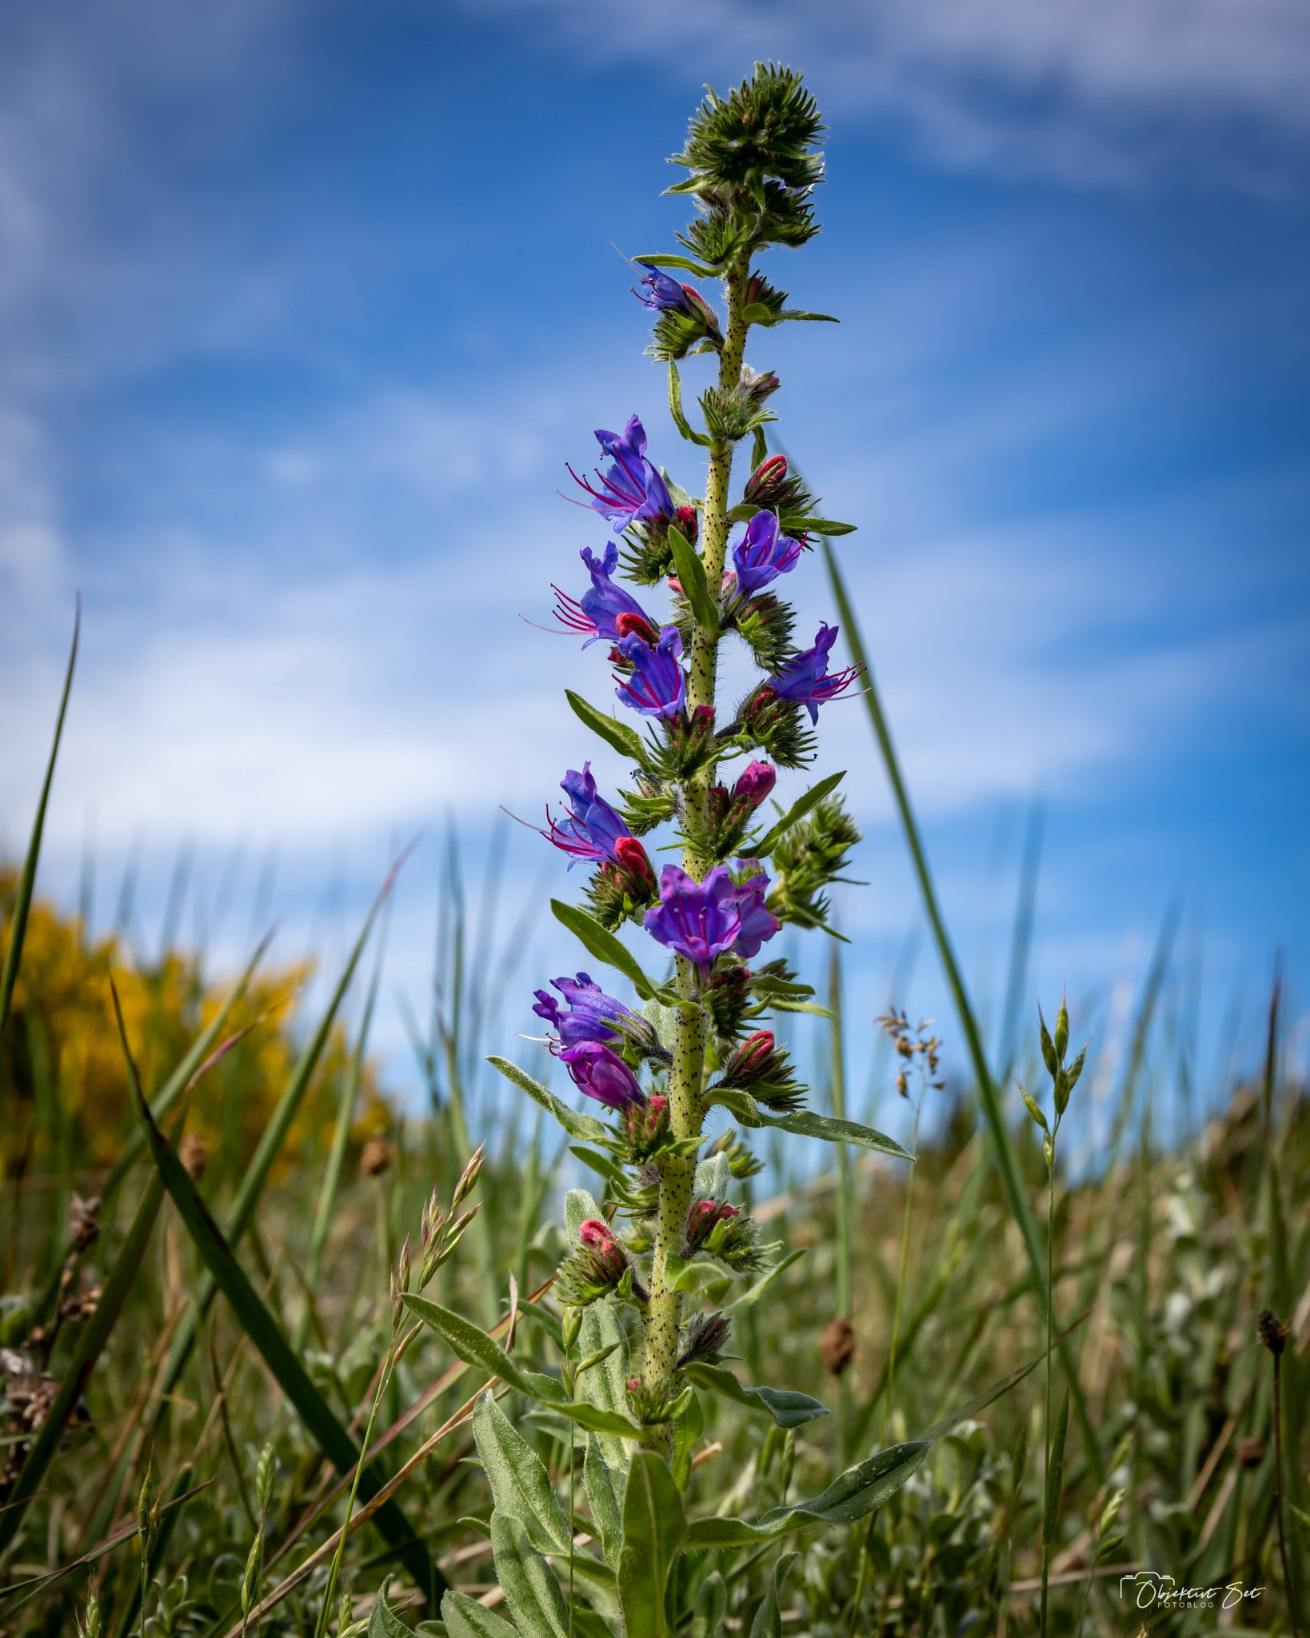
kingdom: Plantae
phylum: Tracheophyta
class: Magnoliopsida
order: Boraginales
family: Boraginaceae
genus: Echium
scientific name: Echium vulgare
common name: Slangehoved
